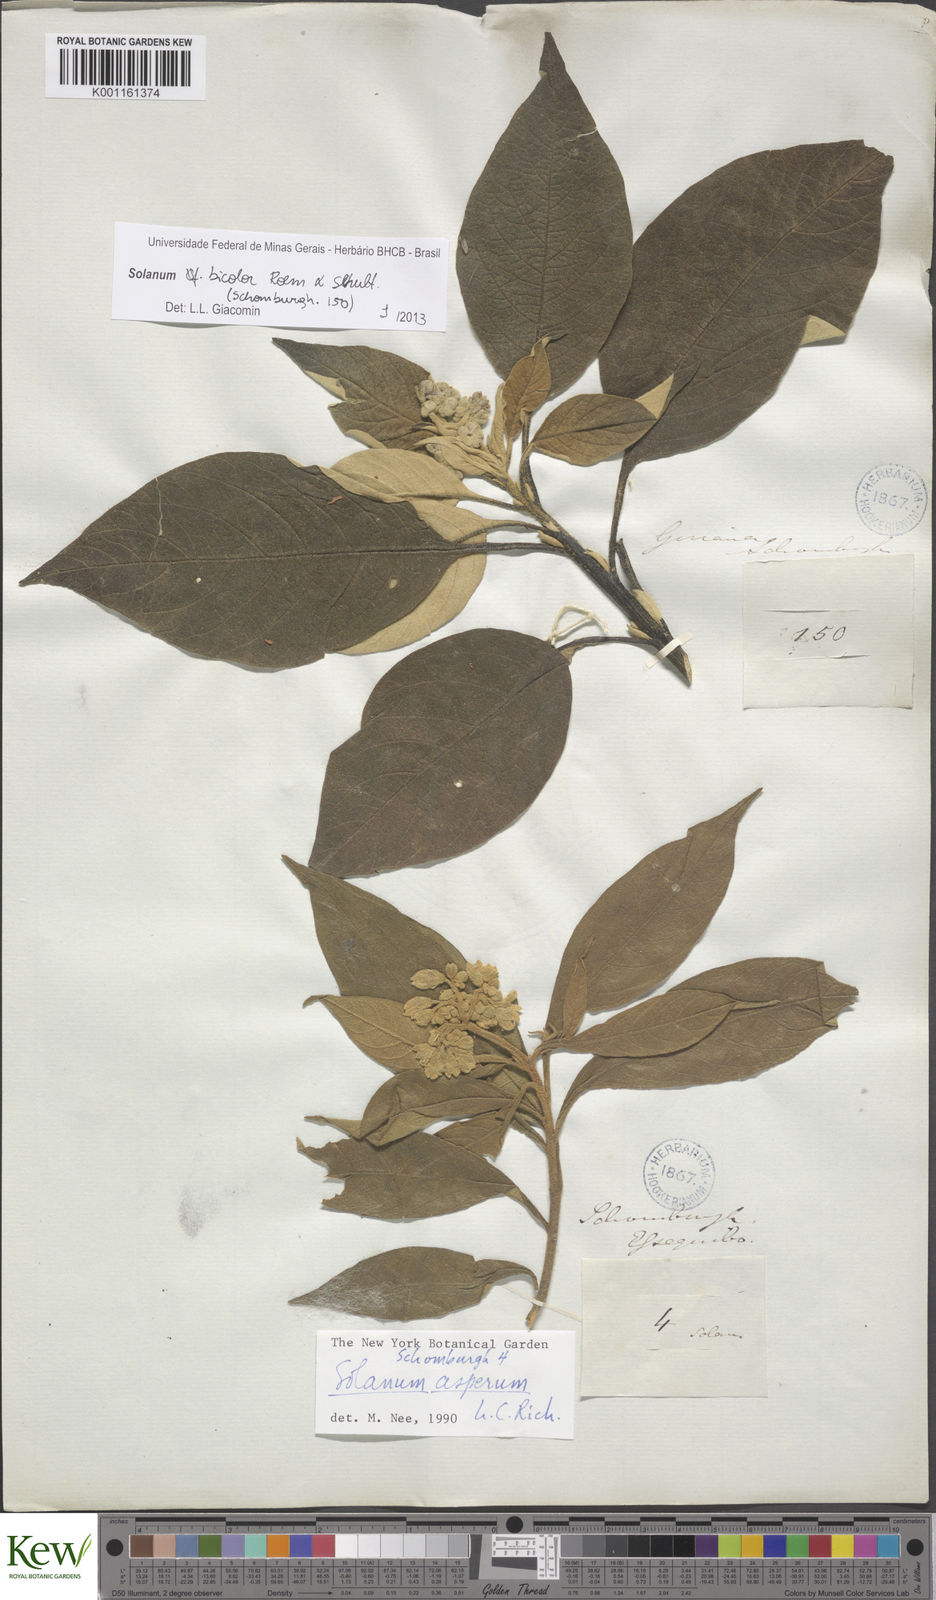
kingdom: Plantae
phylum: Tracheophyta
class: Magnoliopsida
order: Solanales
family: Solanaceae
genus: Solanum
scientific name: Solanum bicolor
